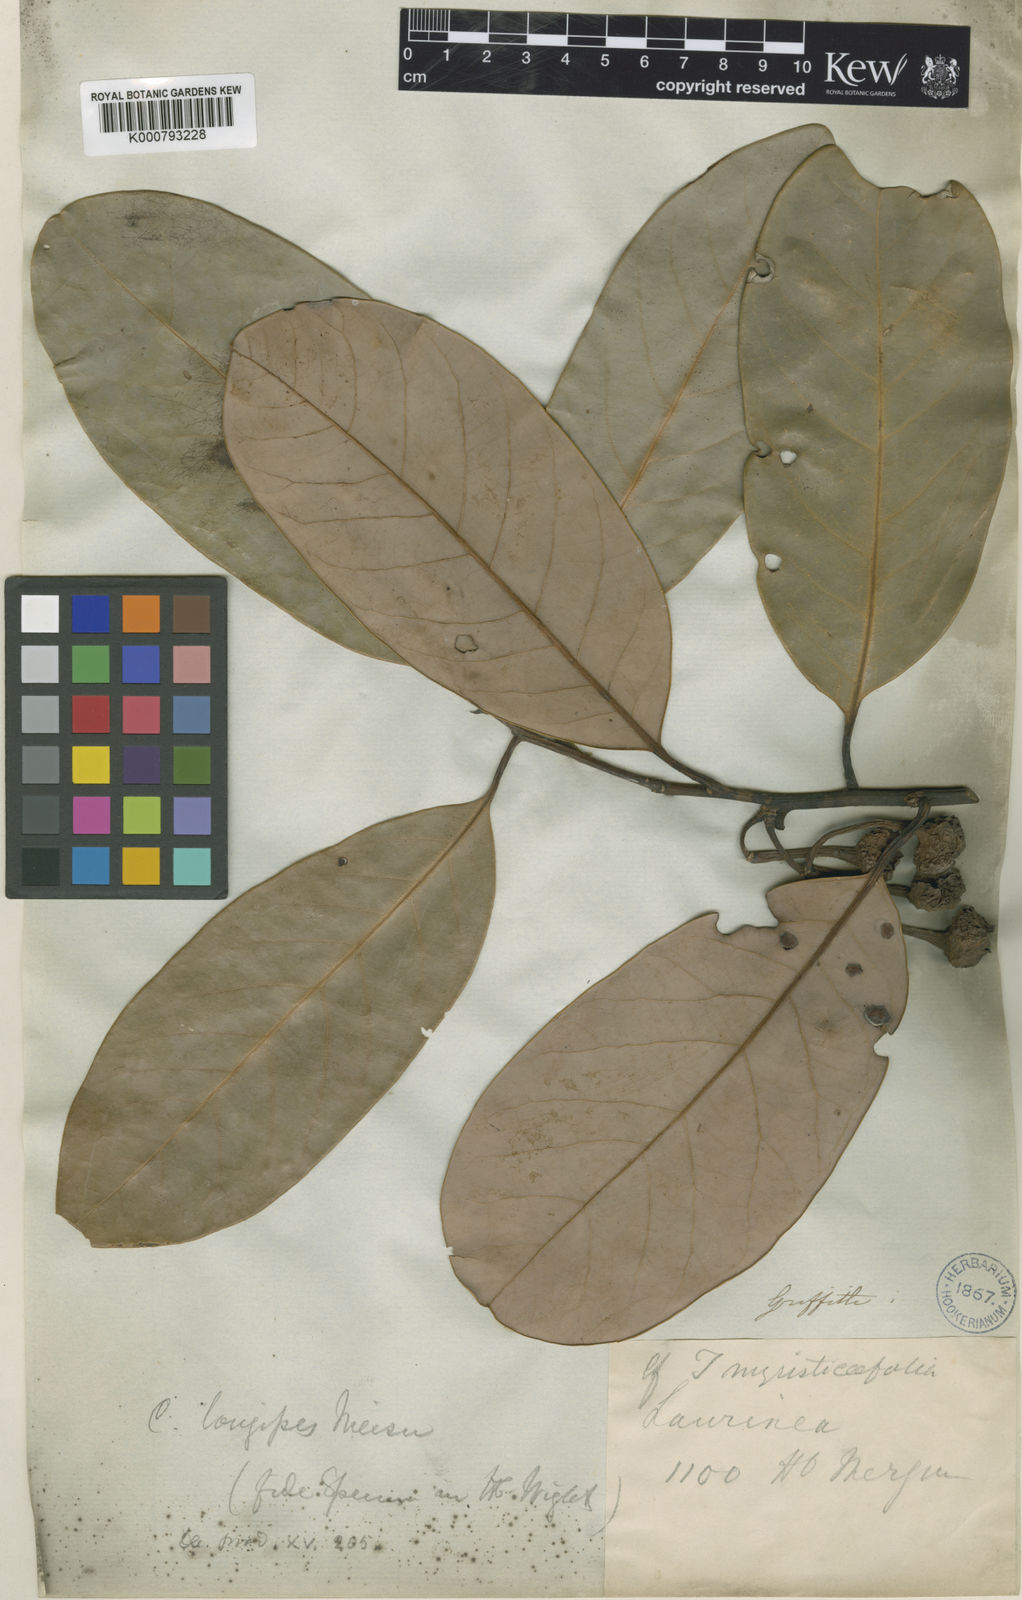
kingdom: Plantae
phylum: Tracheophyta
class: Magnoliopsida
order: Laurales
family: Lauraceae
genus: Litsea
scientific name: Litsea longipes
